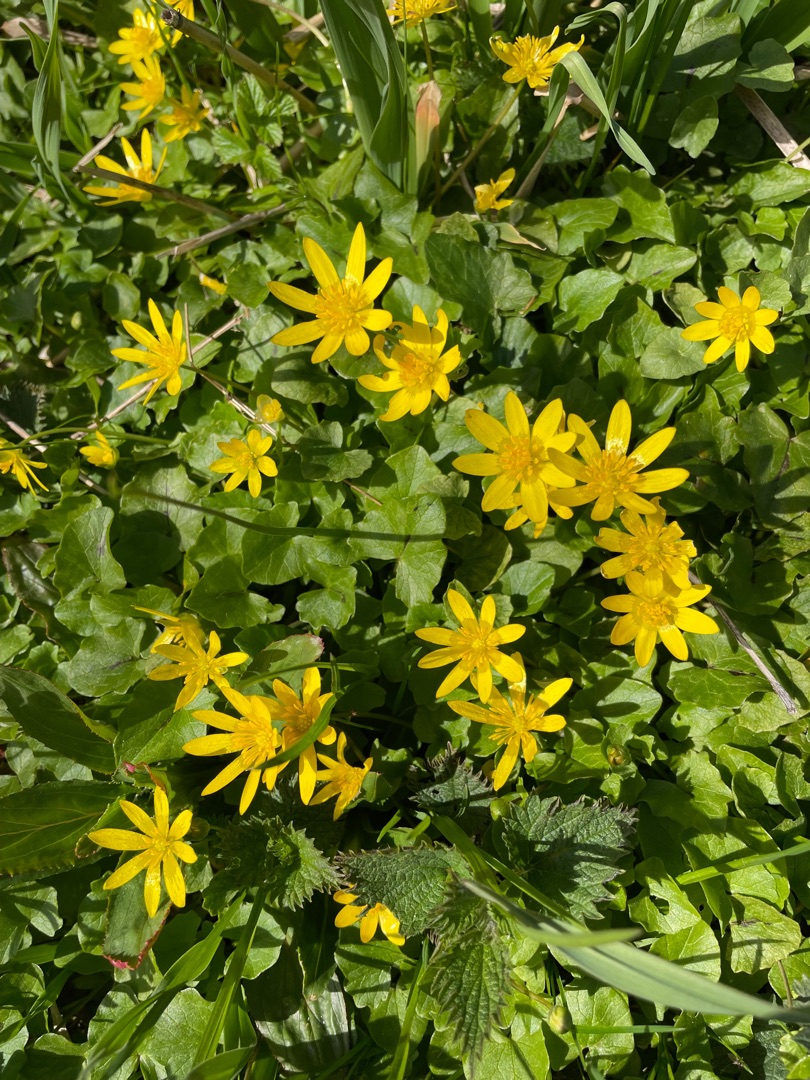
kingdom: Plantae
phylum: Tracheophyta
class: Magnoliopsida
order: Ranunculales
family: Ranunculaceae
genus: Ficaria
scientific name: Ficaria verna
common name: Vorterod
